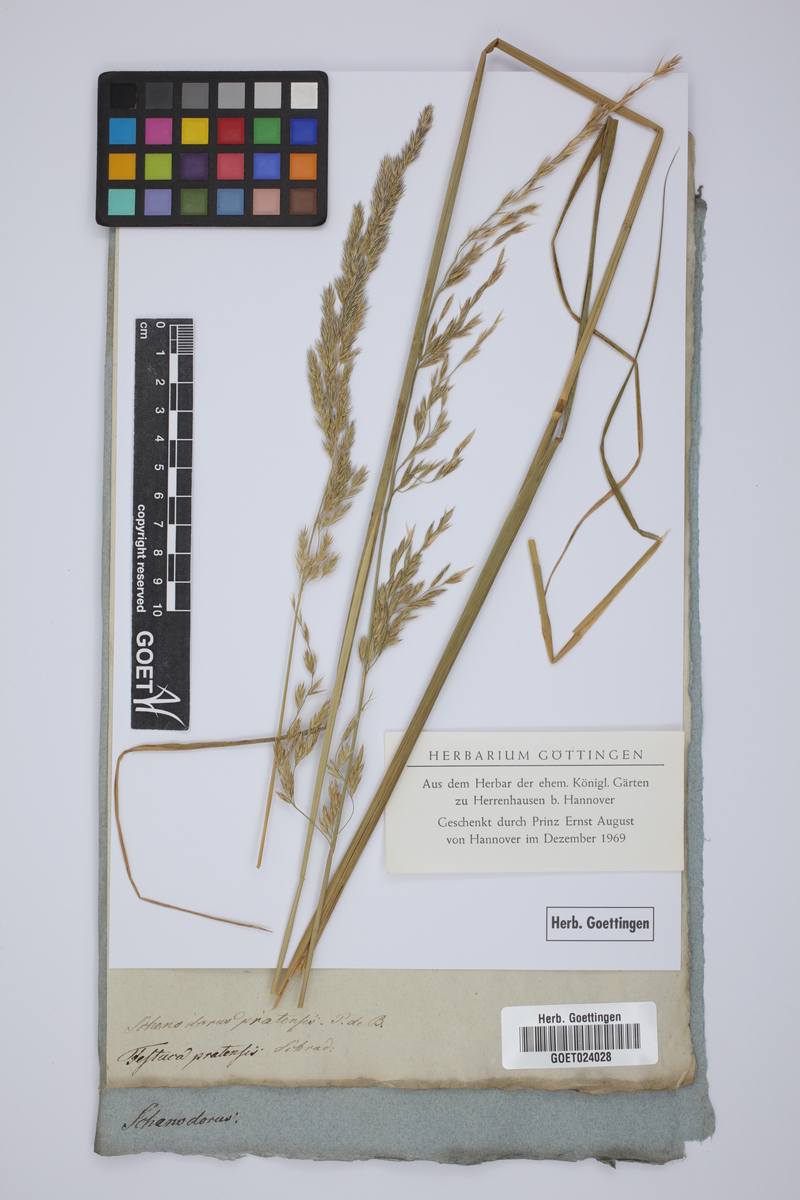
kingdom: Plantae
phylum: Tracheophyta
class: Liliopsida
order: Poales
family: Poaceae
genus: Lolium
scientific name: Lolium pratense
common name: Dover grass
